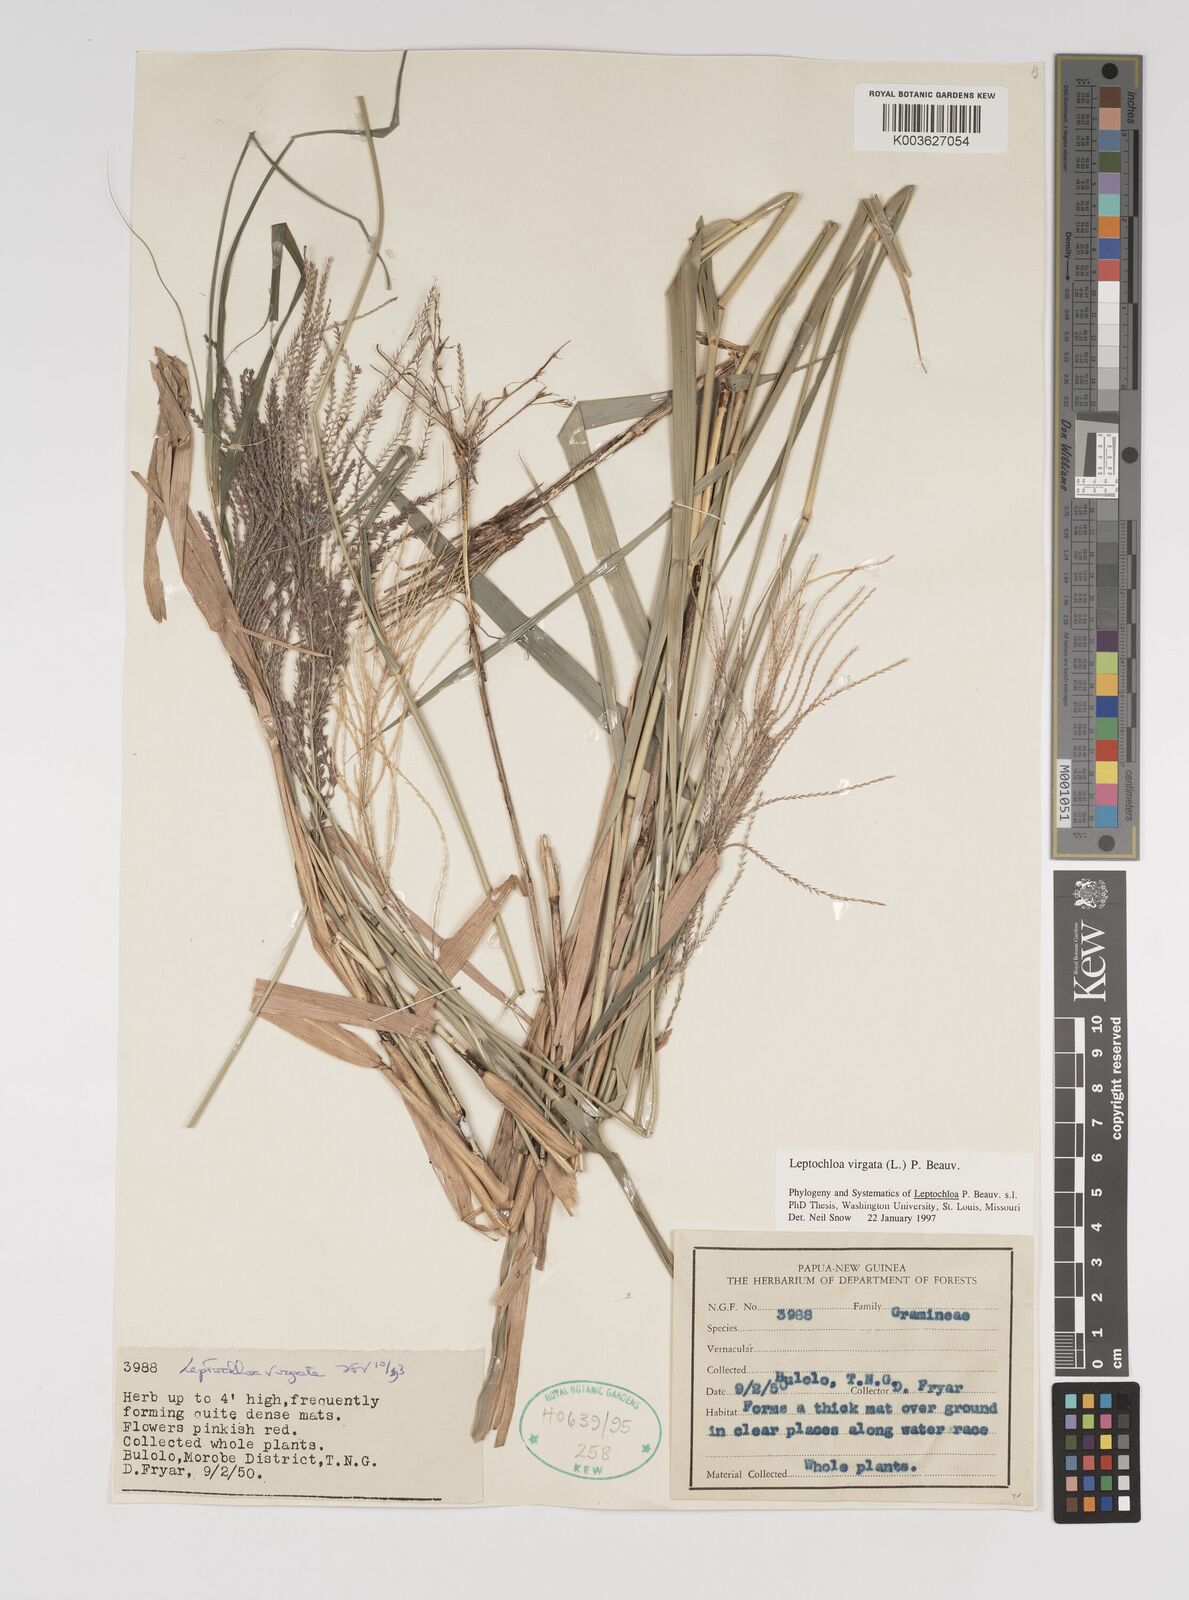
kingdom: Plantae
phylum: Tracheophyta
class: Liliopsida
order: Poales
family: Poaceae
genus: Leptochloa
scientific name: Leptochloa
